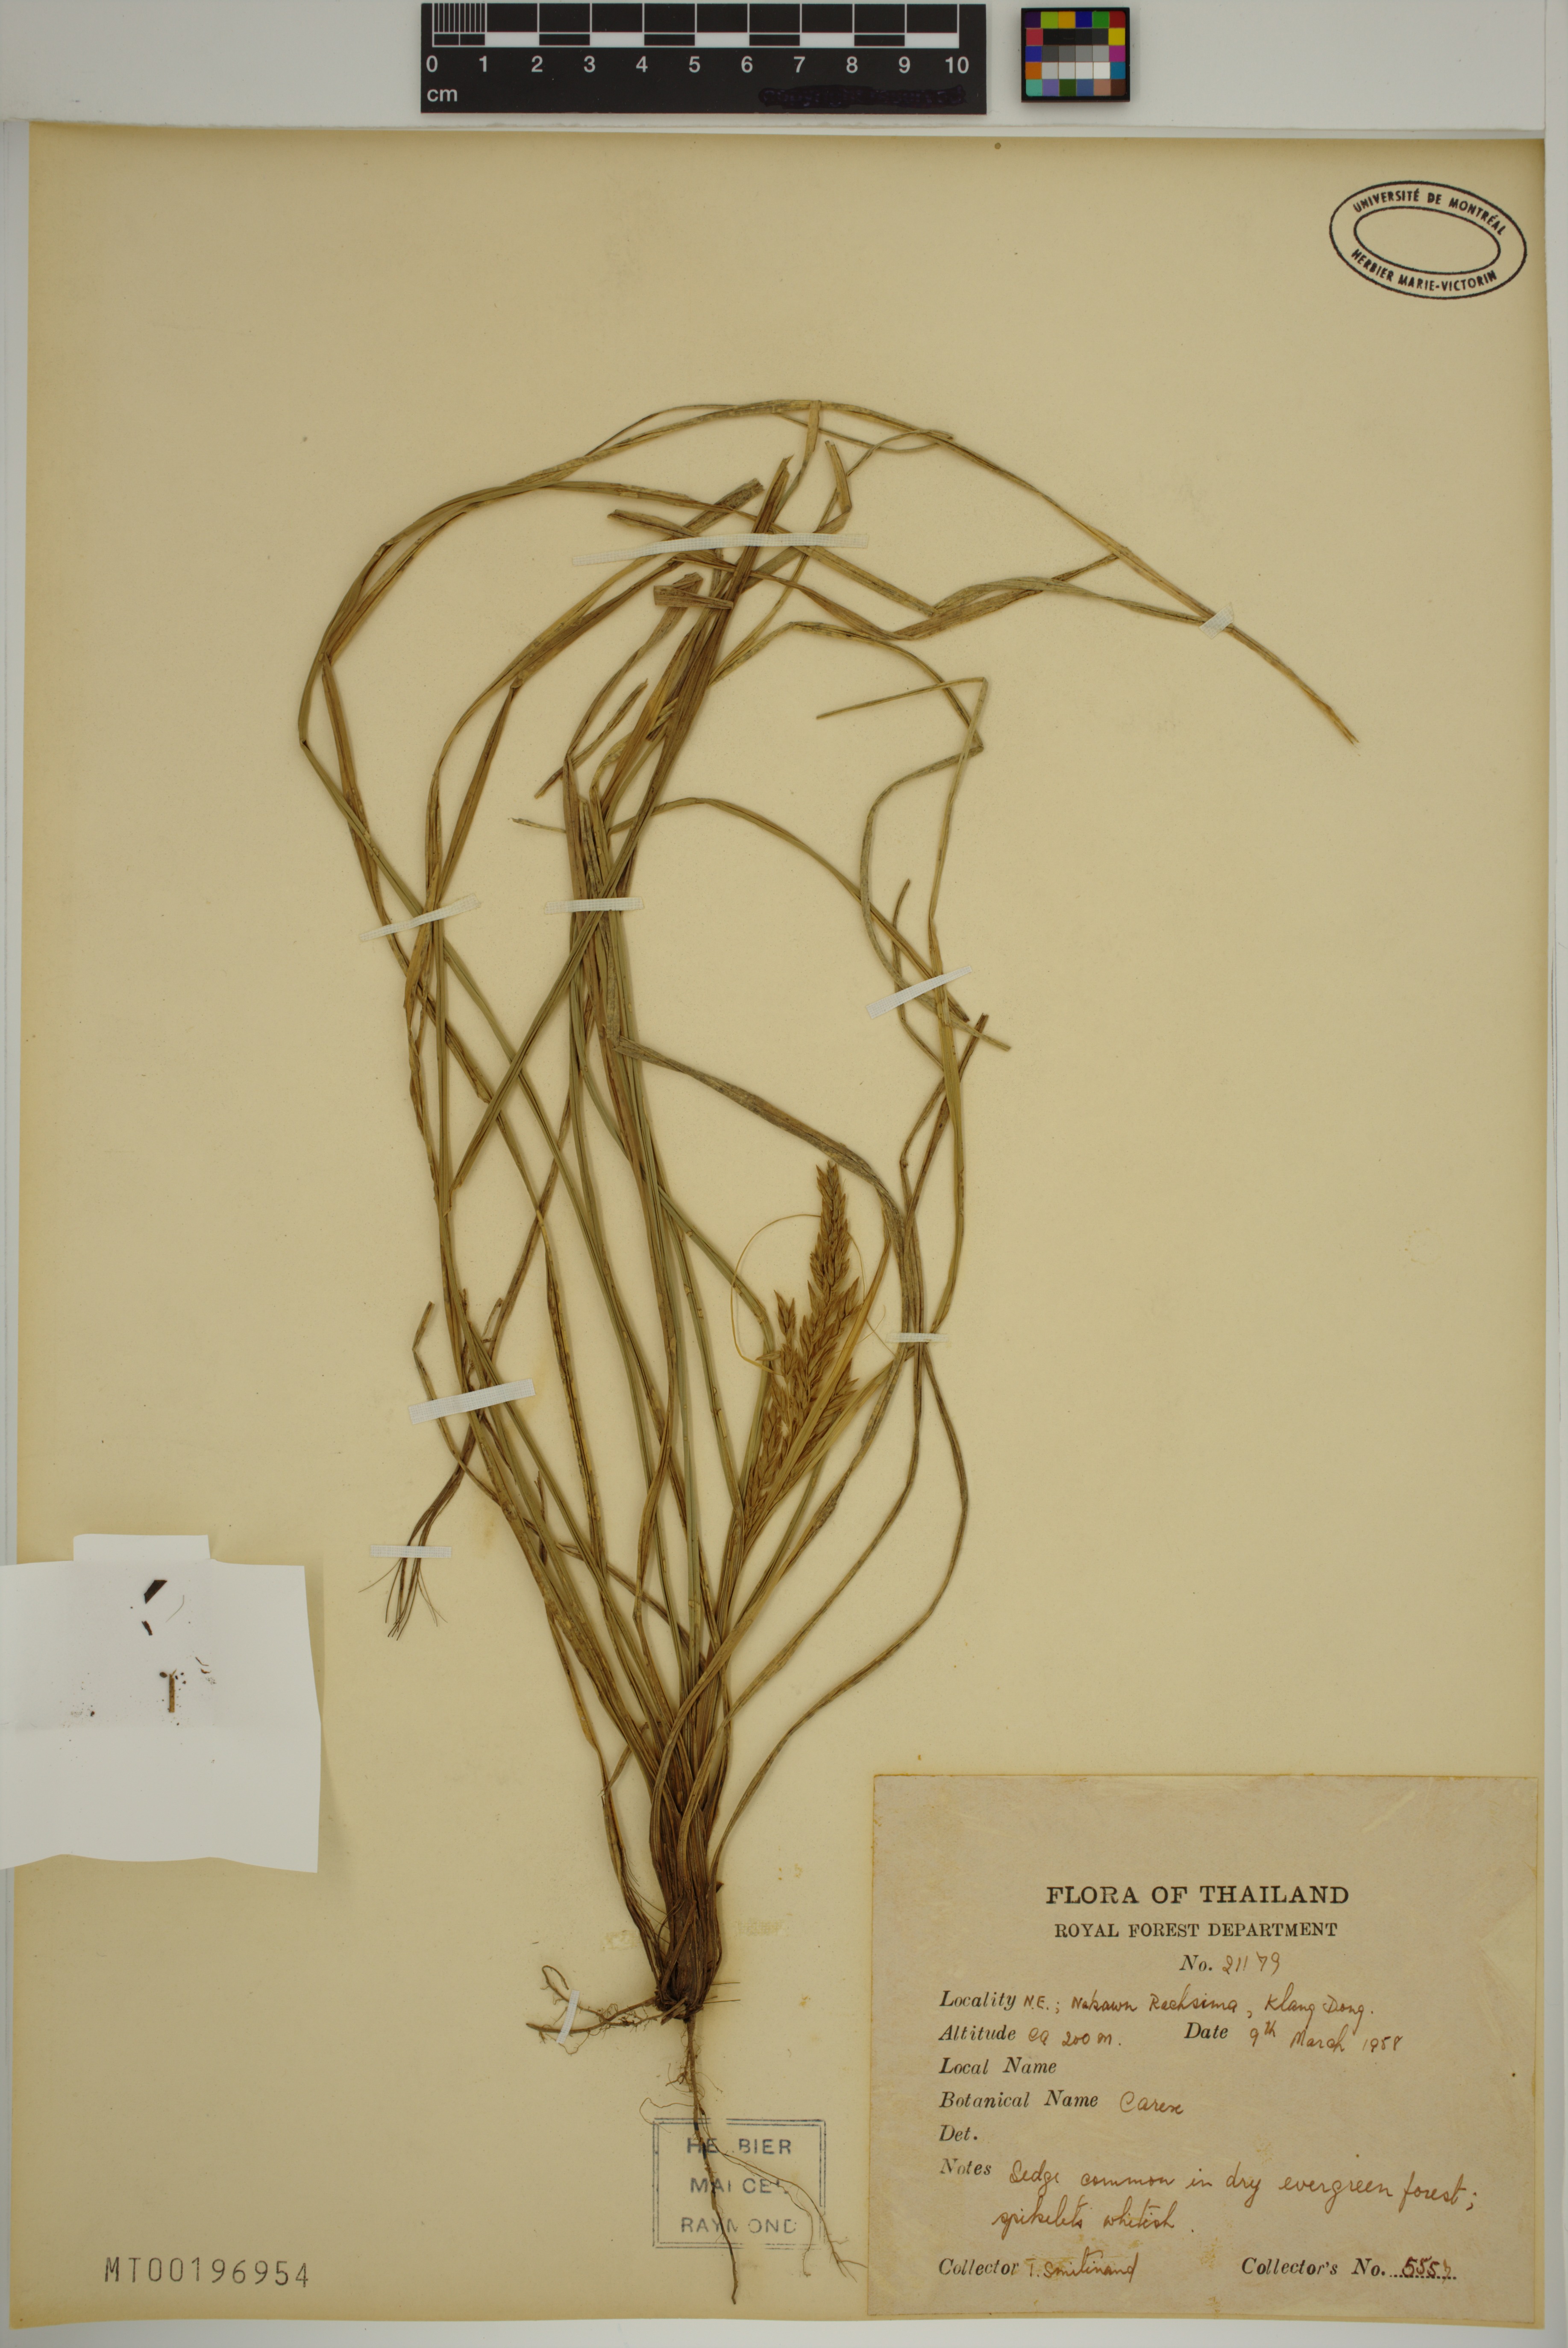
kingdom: Plantae
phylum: Tracheophyta
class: Liliopsida
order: Poales
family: Cyperaceae
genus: Carex
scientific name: Carex
